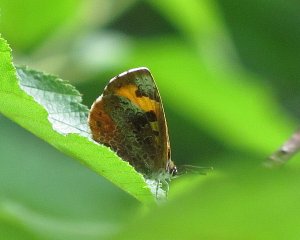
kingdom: Animalia
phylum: Arthropoda
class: Insecta
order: Lepidoptera
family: Lycaenidae
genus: Feniseca
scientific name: Feniseca tarquinius
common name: Harvester
